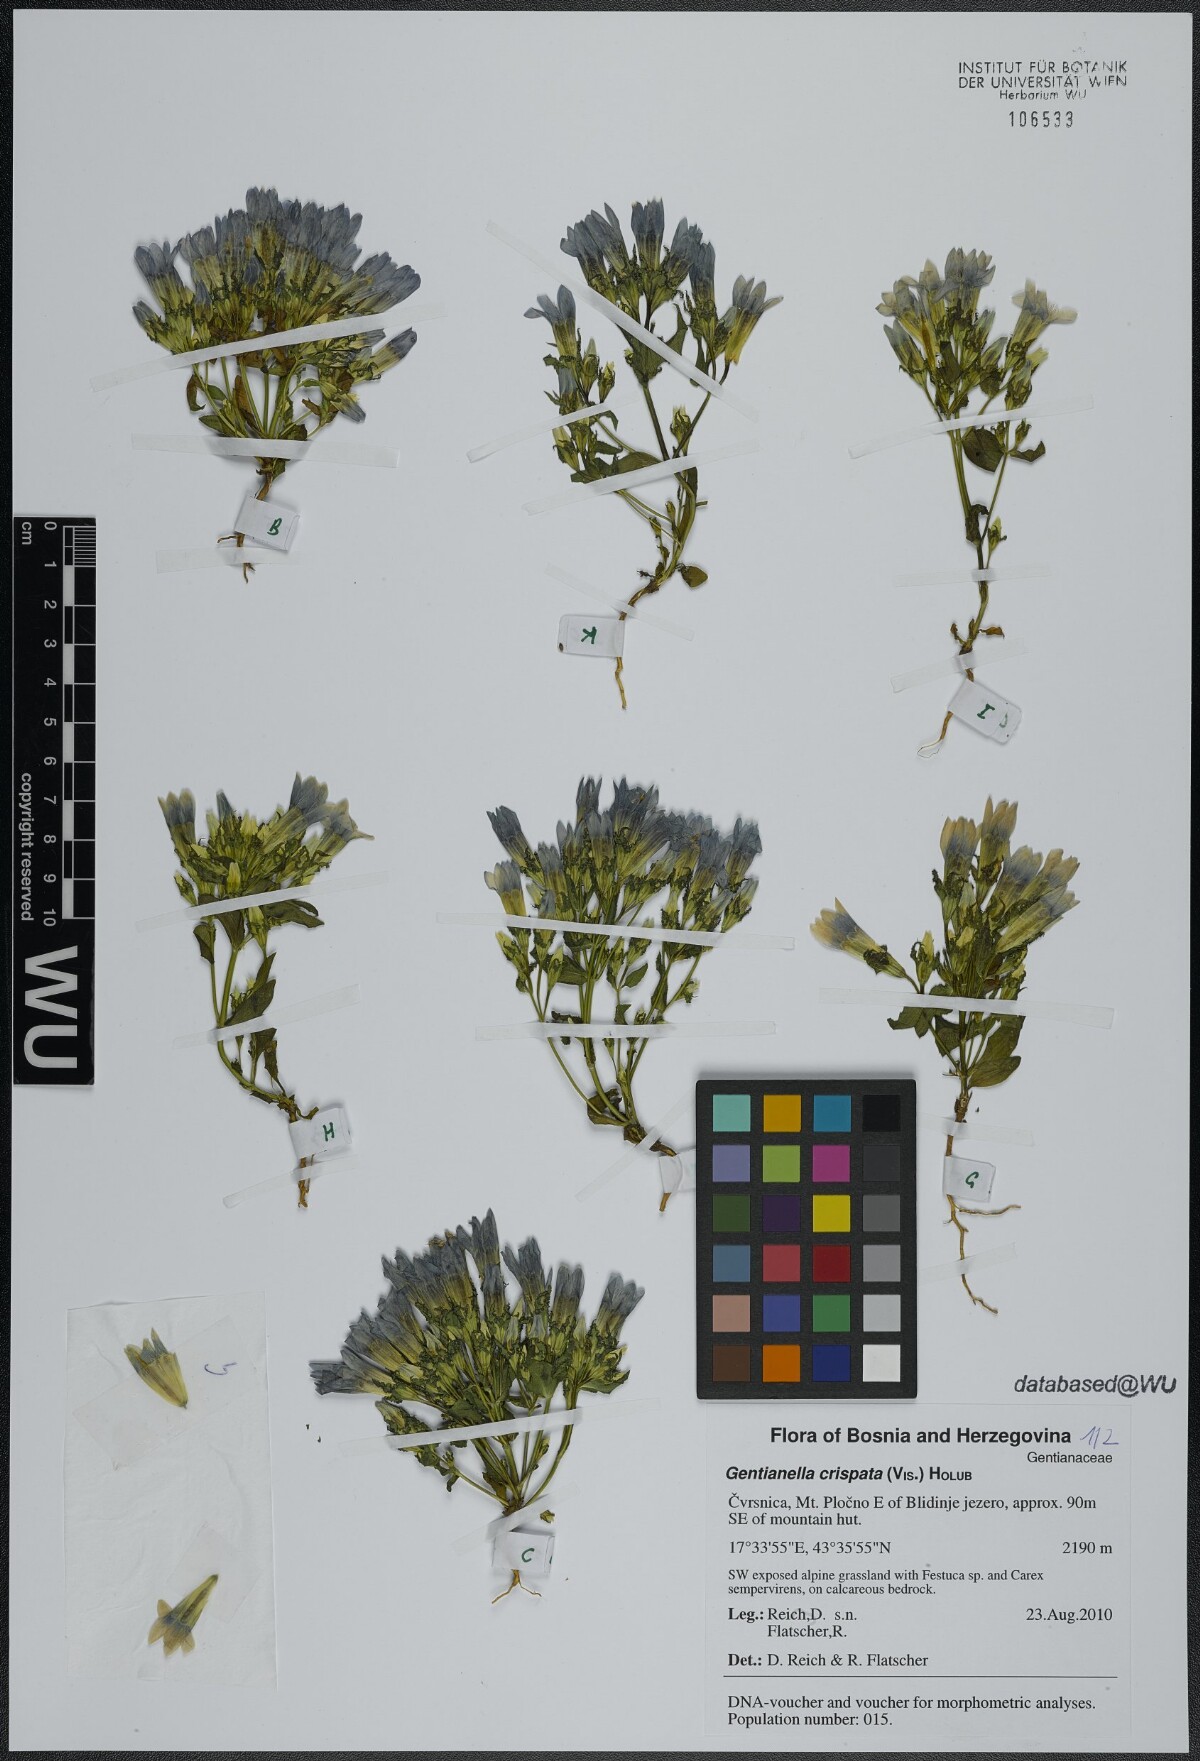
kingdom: Plantae
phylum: Tracheophyta
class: Magnoliopsida
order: Gentianales
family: Gentianaceae
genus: Gentianella
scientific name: Gentianella crispata
